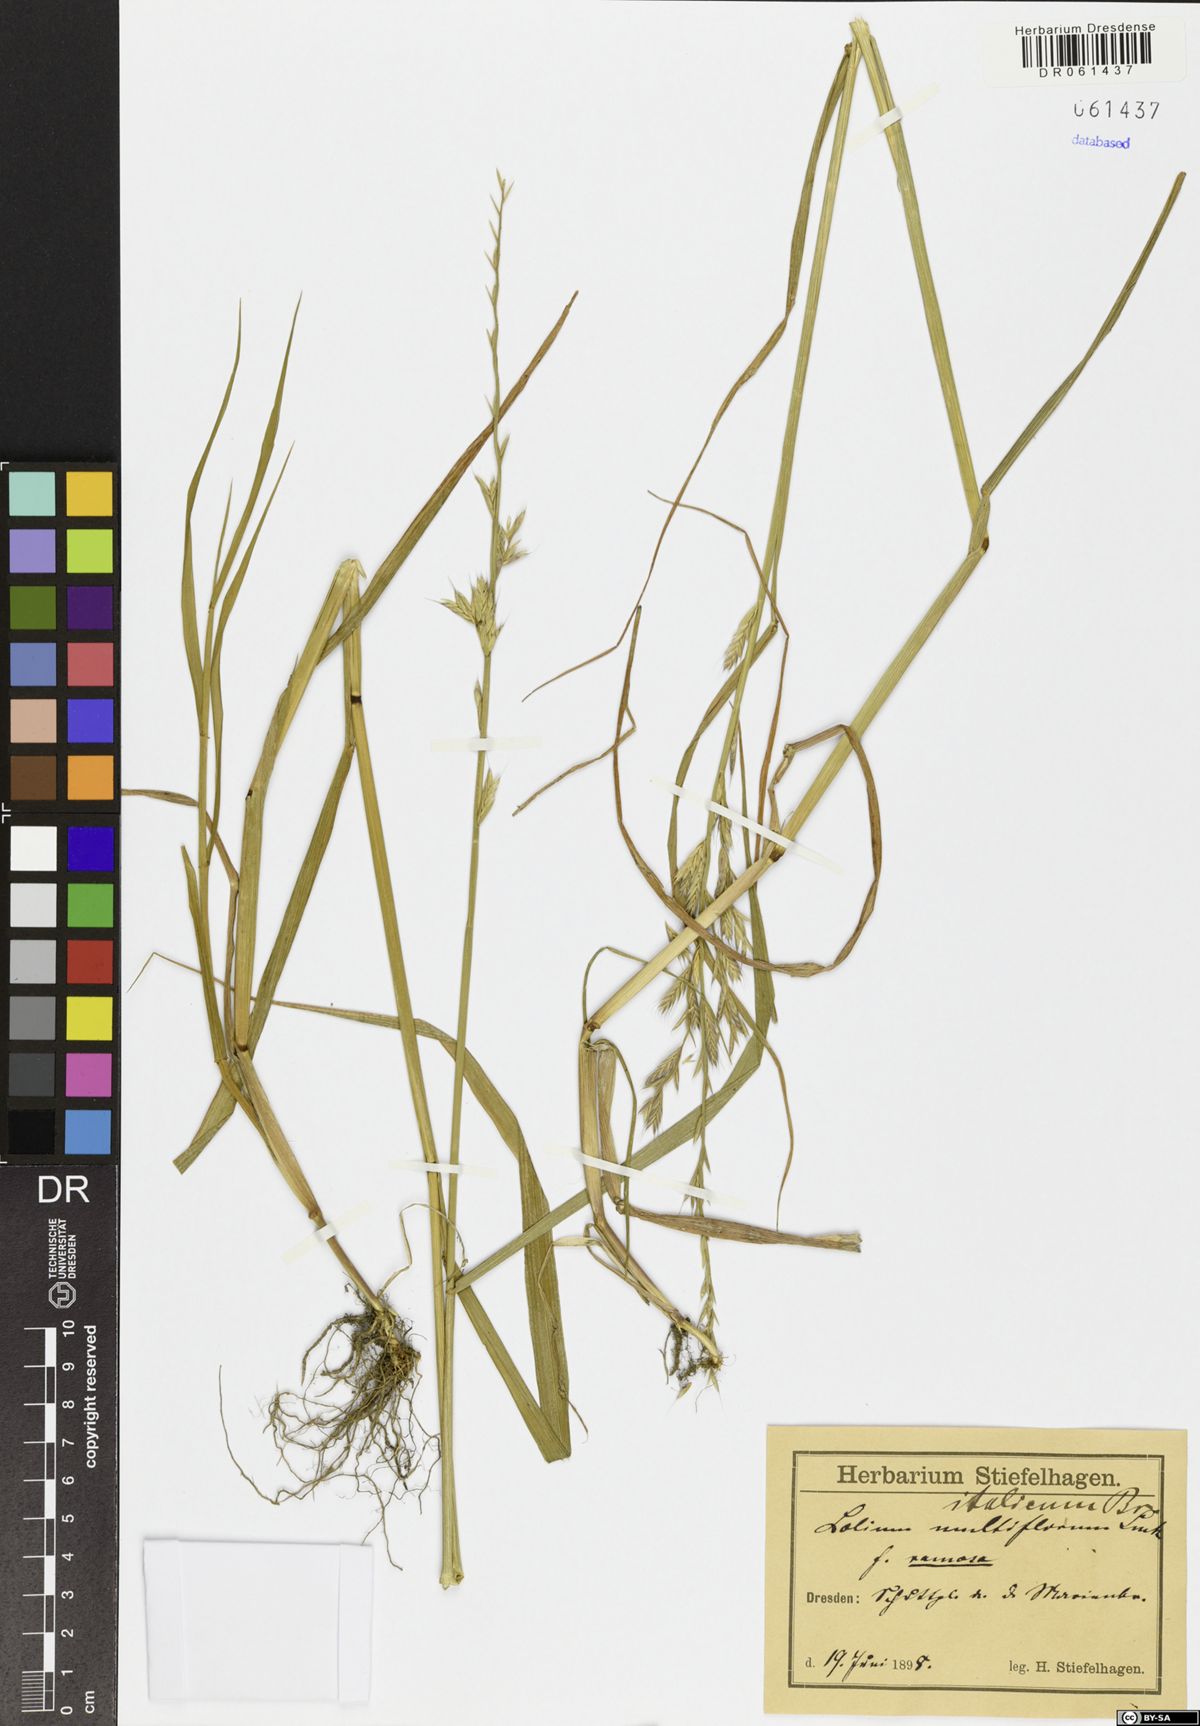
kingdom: Plantae
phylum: Tracheophyta
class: Liliopsida
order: Poales
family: Poaceae
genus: Lolium
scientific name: Lolium multiflorum
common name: Annual ryegrass
